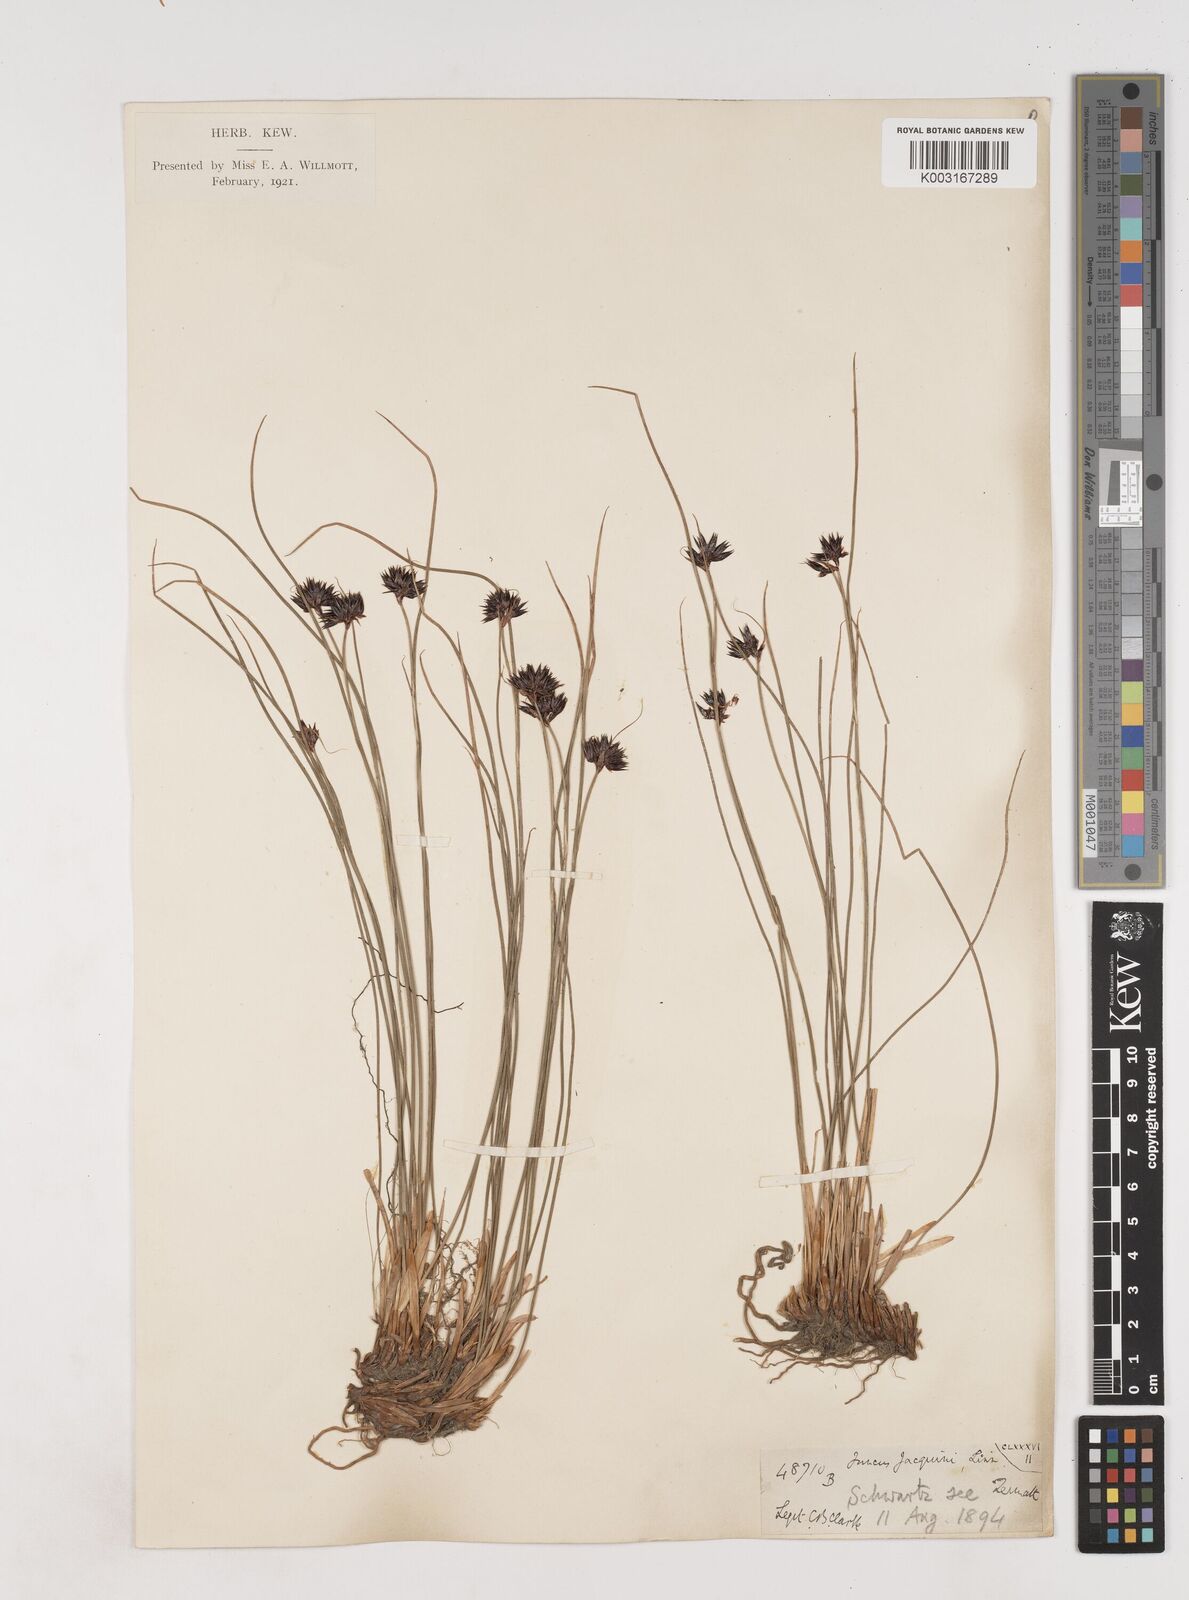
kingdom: Plantae
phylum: Tracheophyta
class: Liliopsida
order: Poales
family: Juncaceae
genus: Juncus
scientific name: Juncus jacquinii
